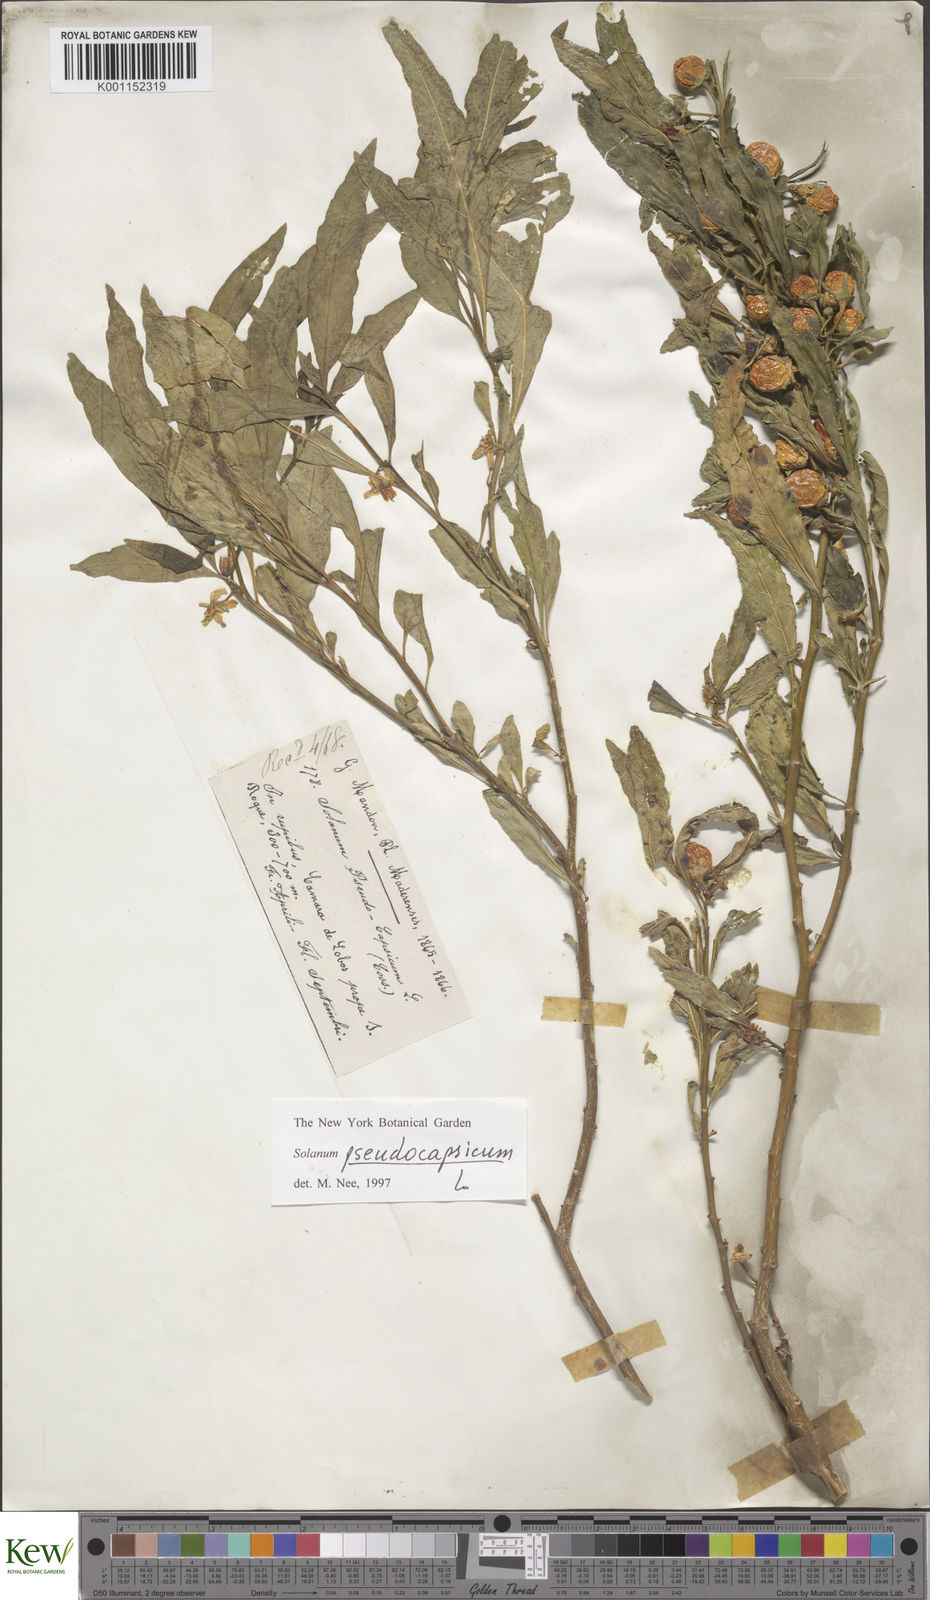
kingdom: Plantae
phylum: Tracheophyta
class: Magnoliopsida
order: Solanales
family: Solanaceae
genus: Solanum
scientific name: Solanum pseudocapsicum
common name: Jerusalem cherry
